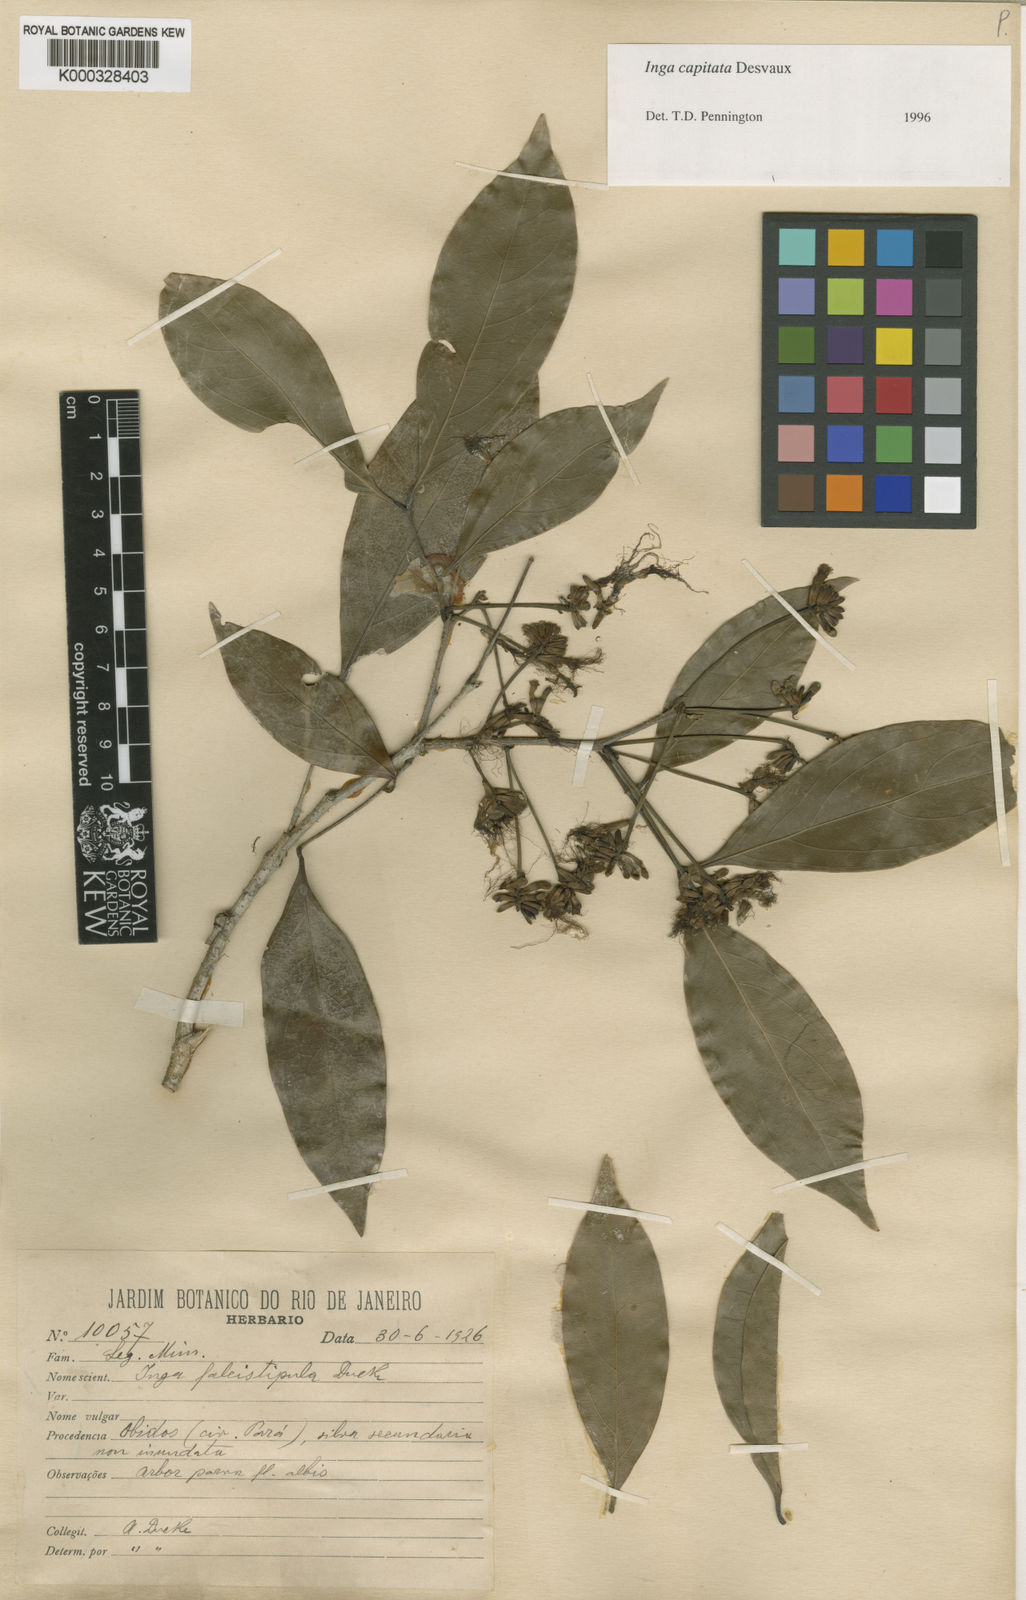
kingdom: Plantae
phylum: Tracheophyta
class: Magnoliopsida
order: Fabales
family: Fabaceae
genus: Inga
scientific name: Inga capitata
